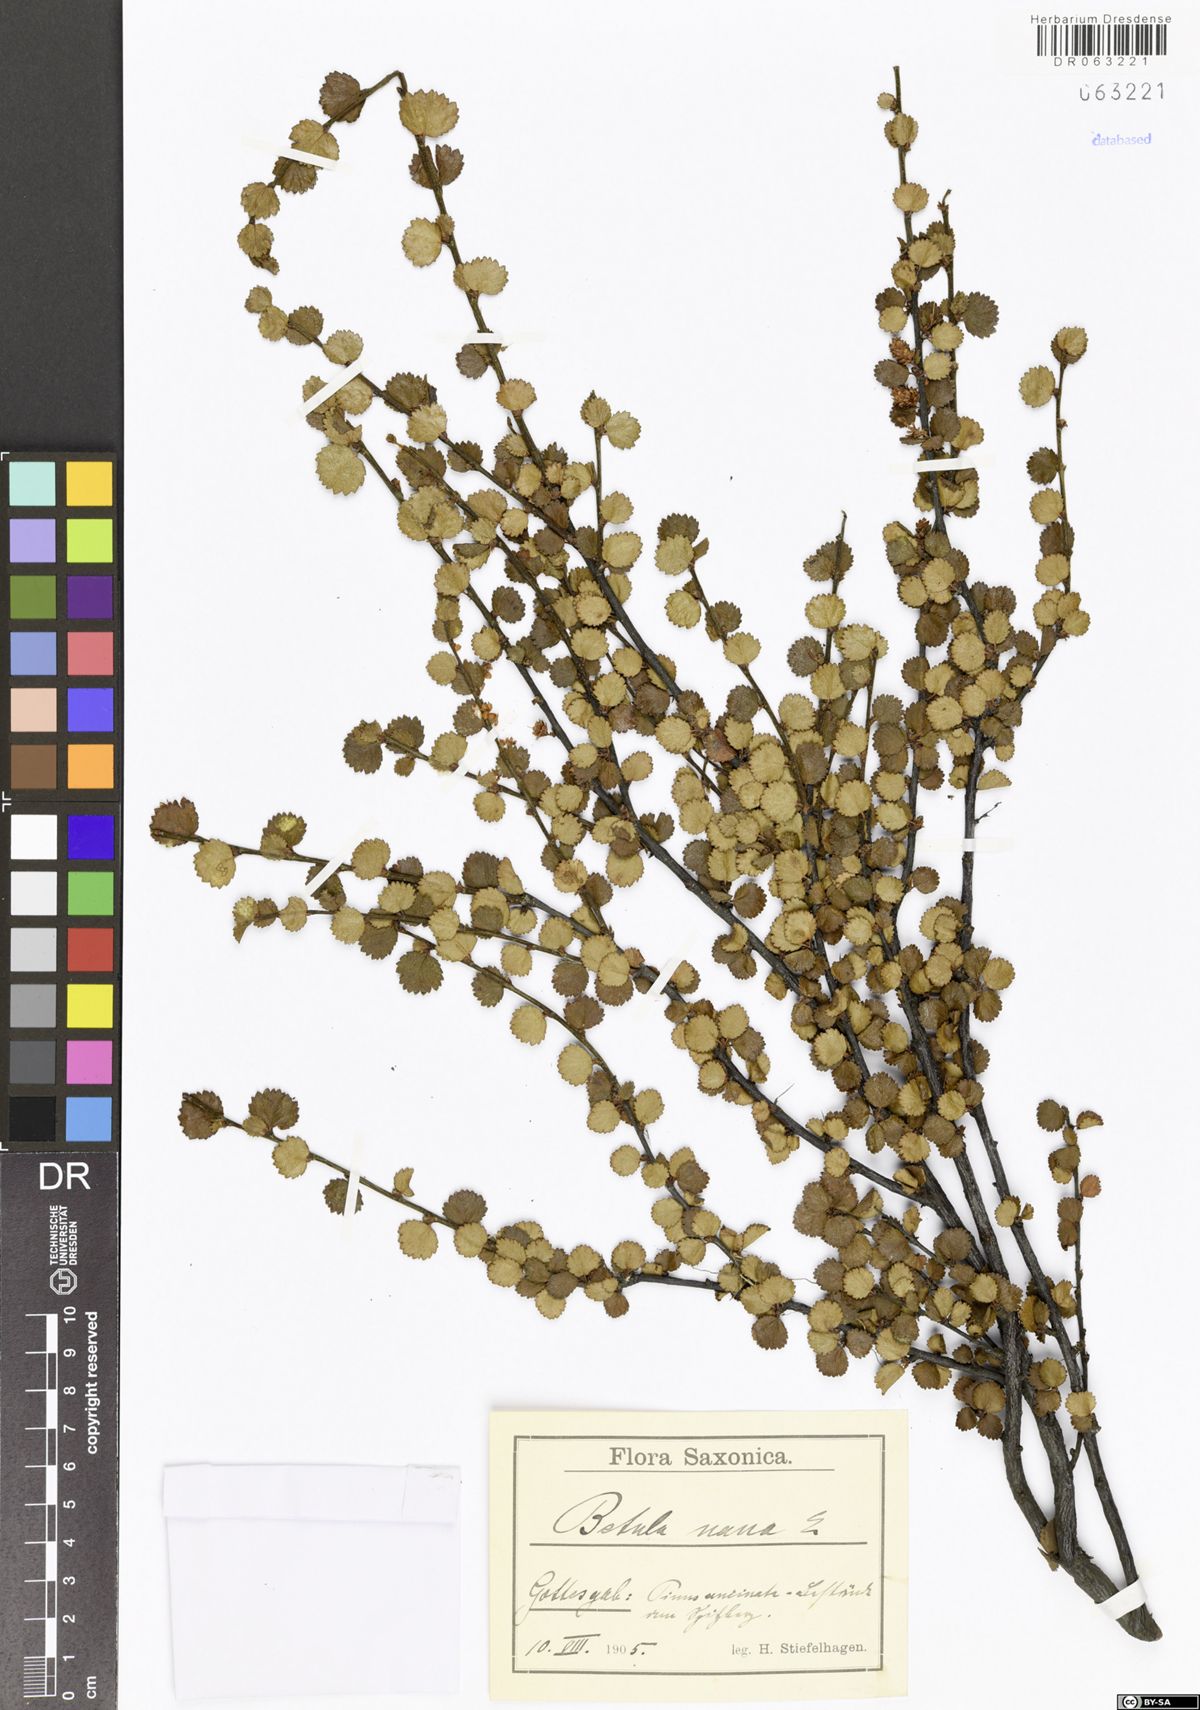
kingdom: Plantae
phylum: Tracheophyta
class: Magnoliopsida
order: Fagales
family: Betulaceae
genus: Betula
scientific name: Betula nana
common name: Arctic dwarf birch
